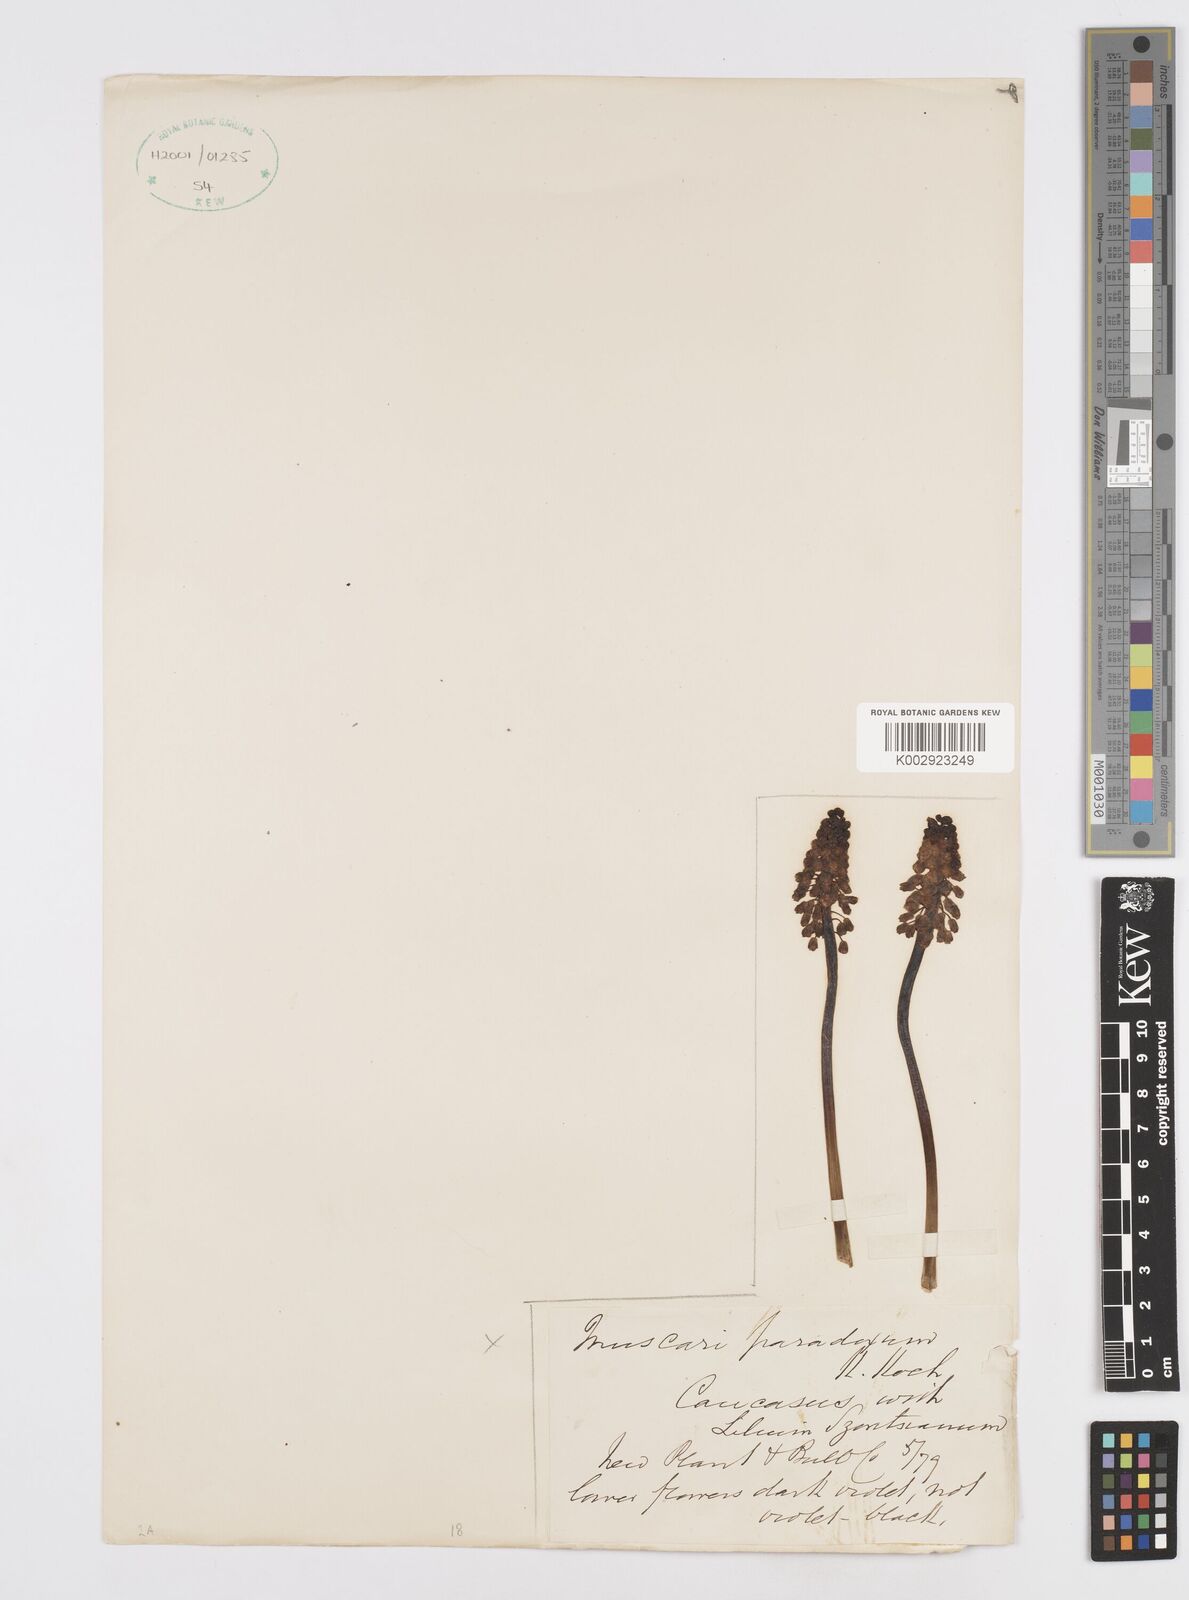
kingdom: Plantae
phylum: Tracheophyta
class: Liliopsida
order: Asparagales
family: Asparagaceae
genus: Bellevalia
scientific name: Bellevalia paradoxa
